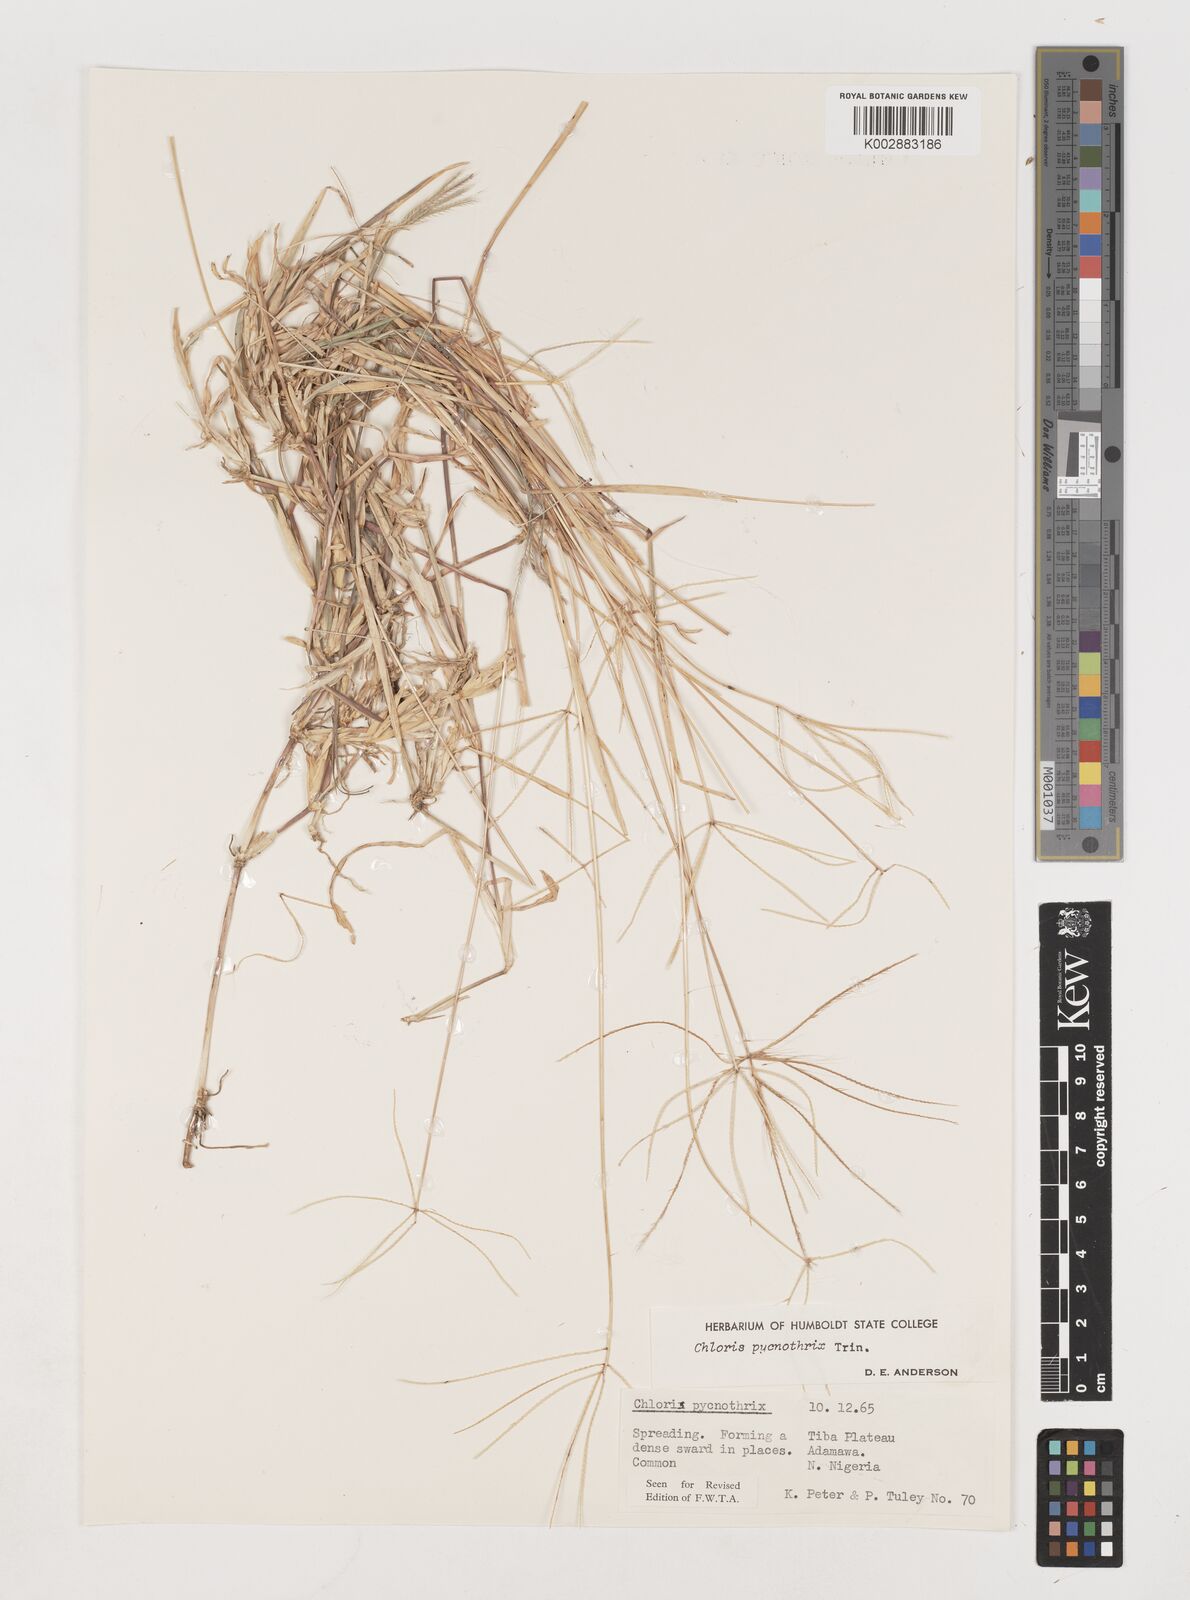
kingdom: Plantae
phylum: Tracheophyta
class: Liliopsida
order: Poales
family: Poaceae
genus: Chloris
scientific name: Chloris pycnothrix
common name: Spiderweb chloris
